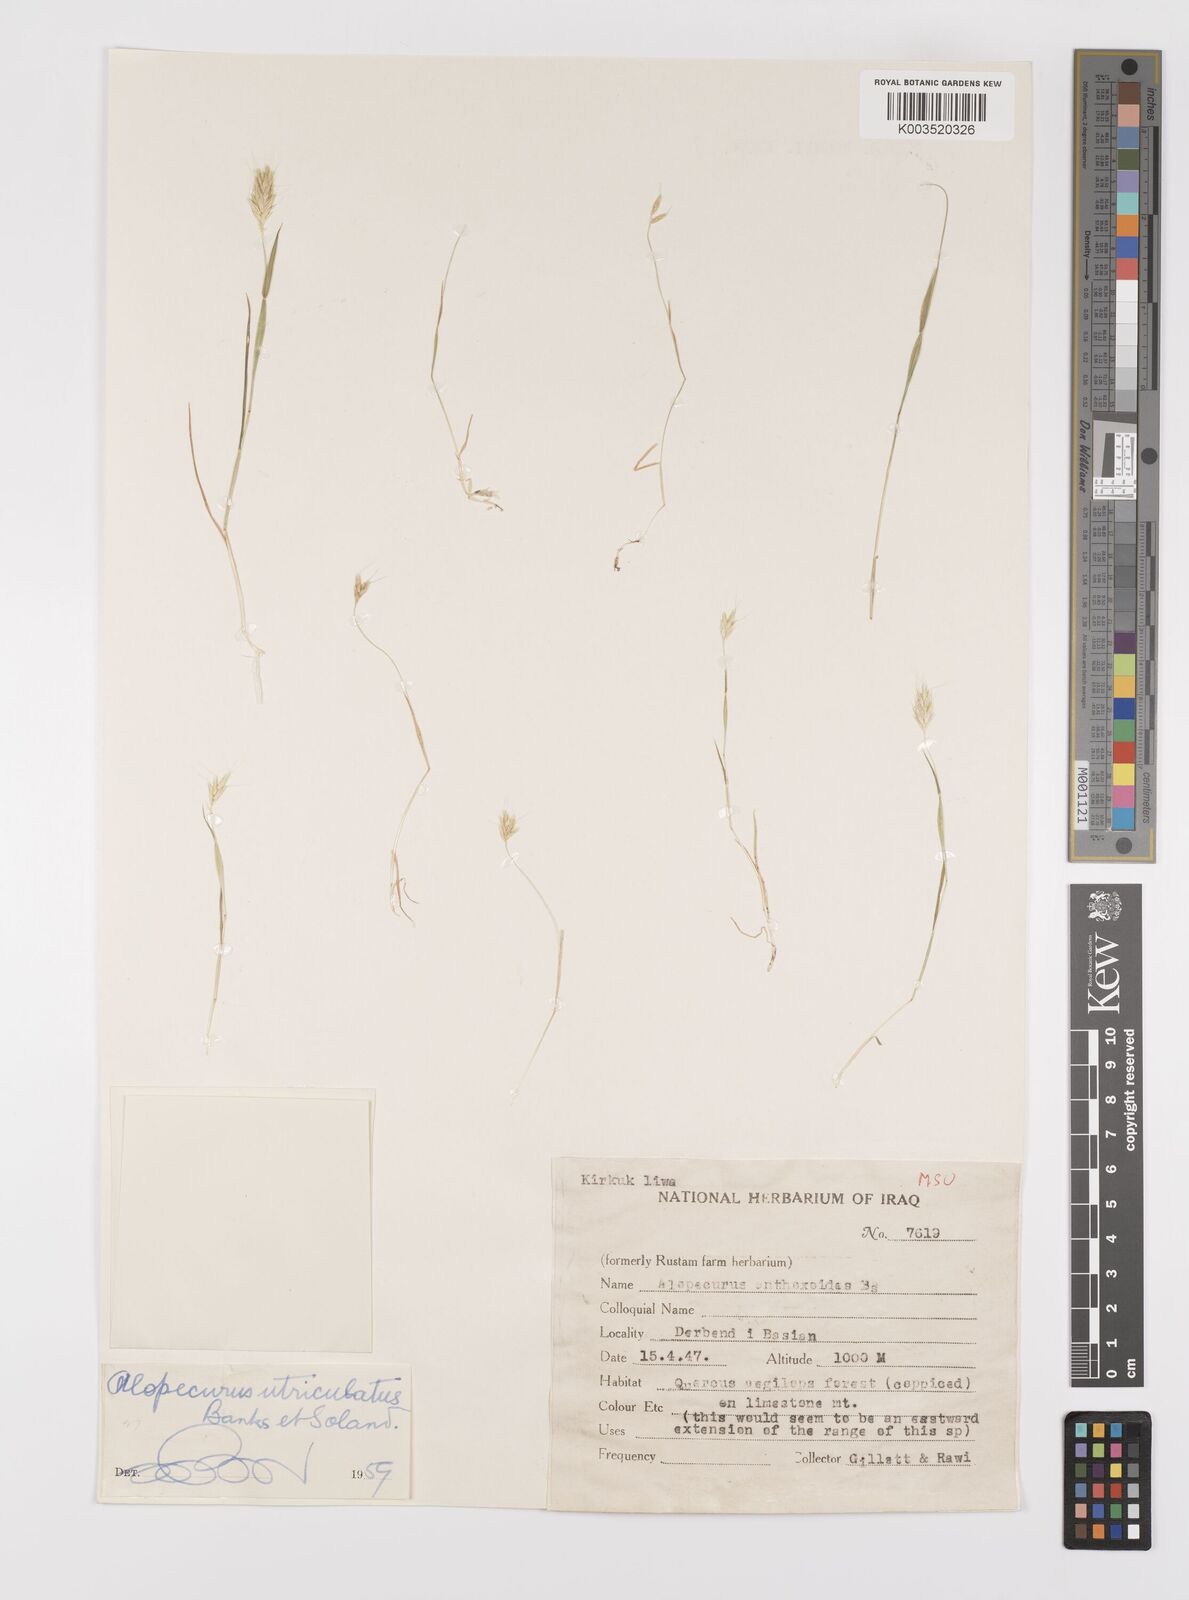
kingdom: Plantae
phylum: Tracheophyta
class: Liliopsida
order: Poales
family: Poaceae
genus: Alopecurus
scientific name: Alopecurus utriculatus
